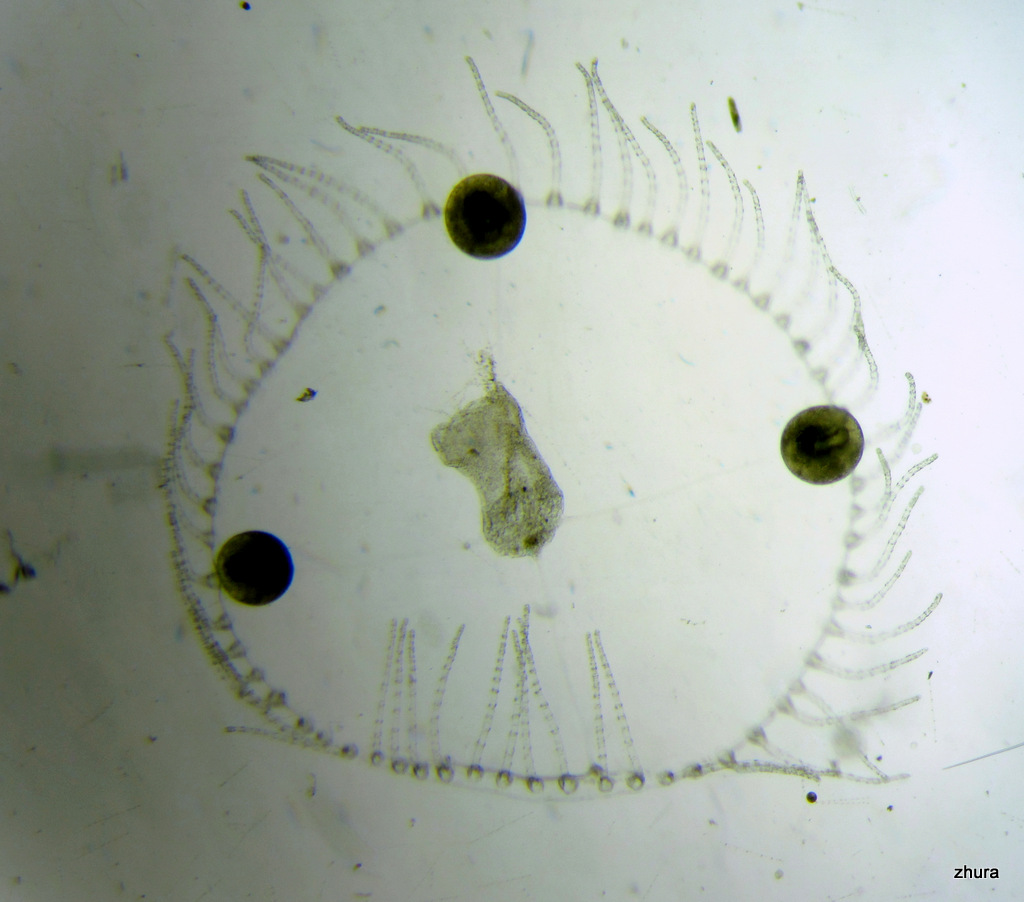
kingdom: Animalia
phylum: Cnidaria
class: Hydrozoa
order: Leptothecata
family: Campanulariidae
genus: Obelia
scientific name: Obelia longissima
